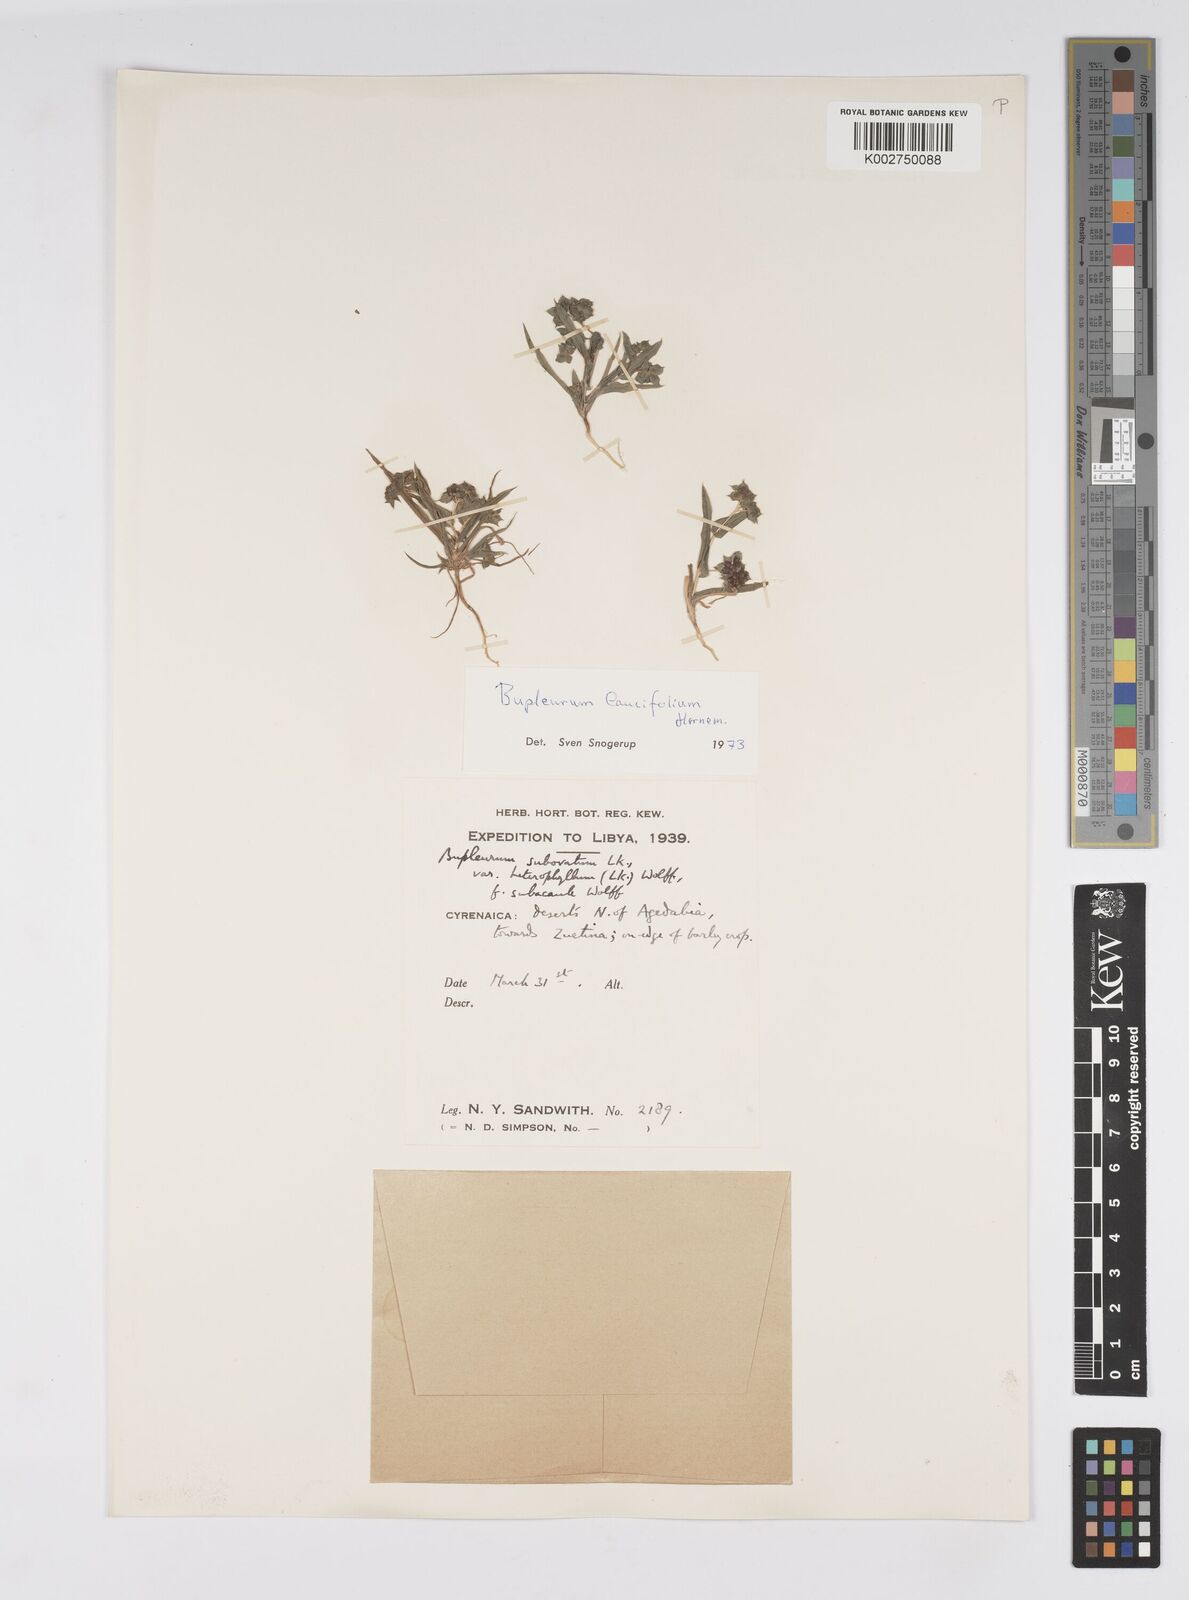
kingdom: Plantae
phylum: Tracheophyta
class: Magnoliopsida
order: Apiales
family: Apiaceae
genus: Bupleurum
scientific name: Bupleurum lancifolium
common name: False thorow-wax
